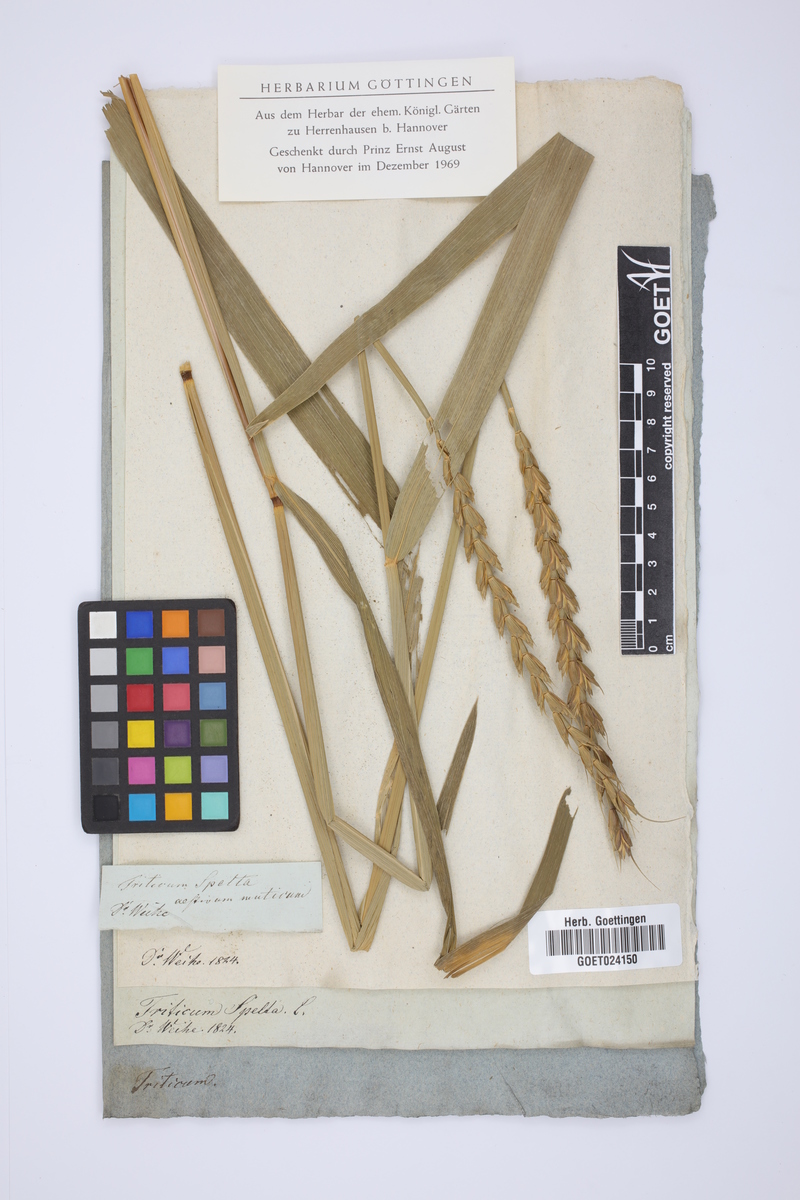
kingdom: Plantae
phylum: Tracheophyta
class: Liliopsida
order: Poales
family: Poaceae
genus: Triticum
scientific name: Triticum aestivum
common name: Common wheat
